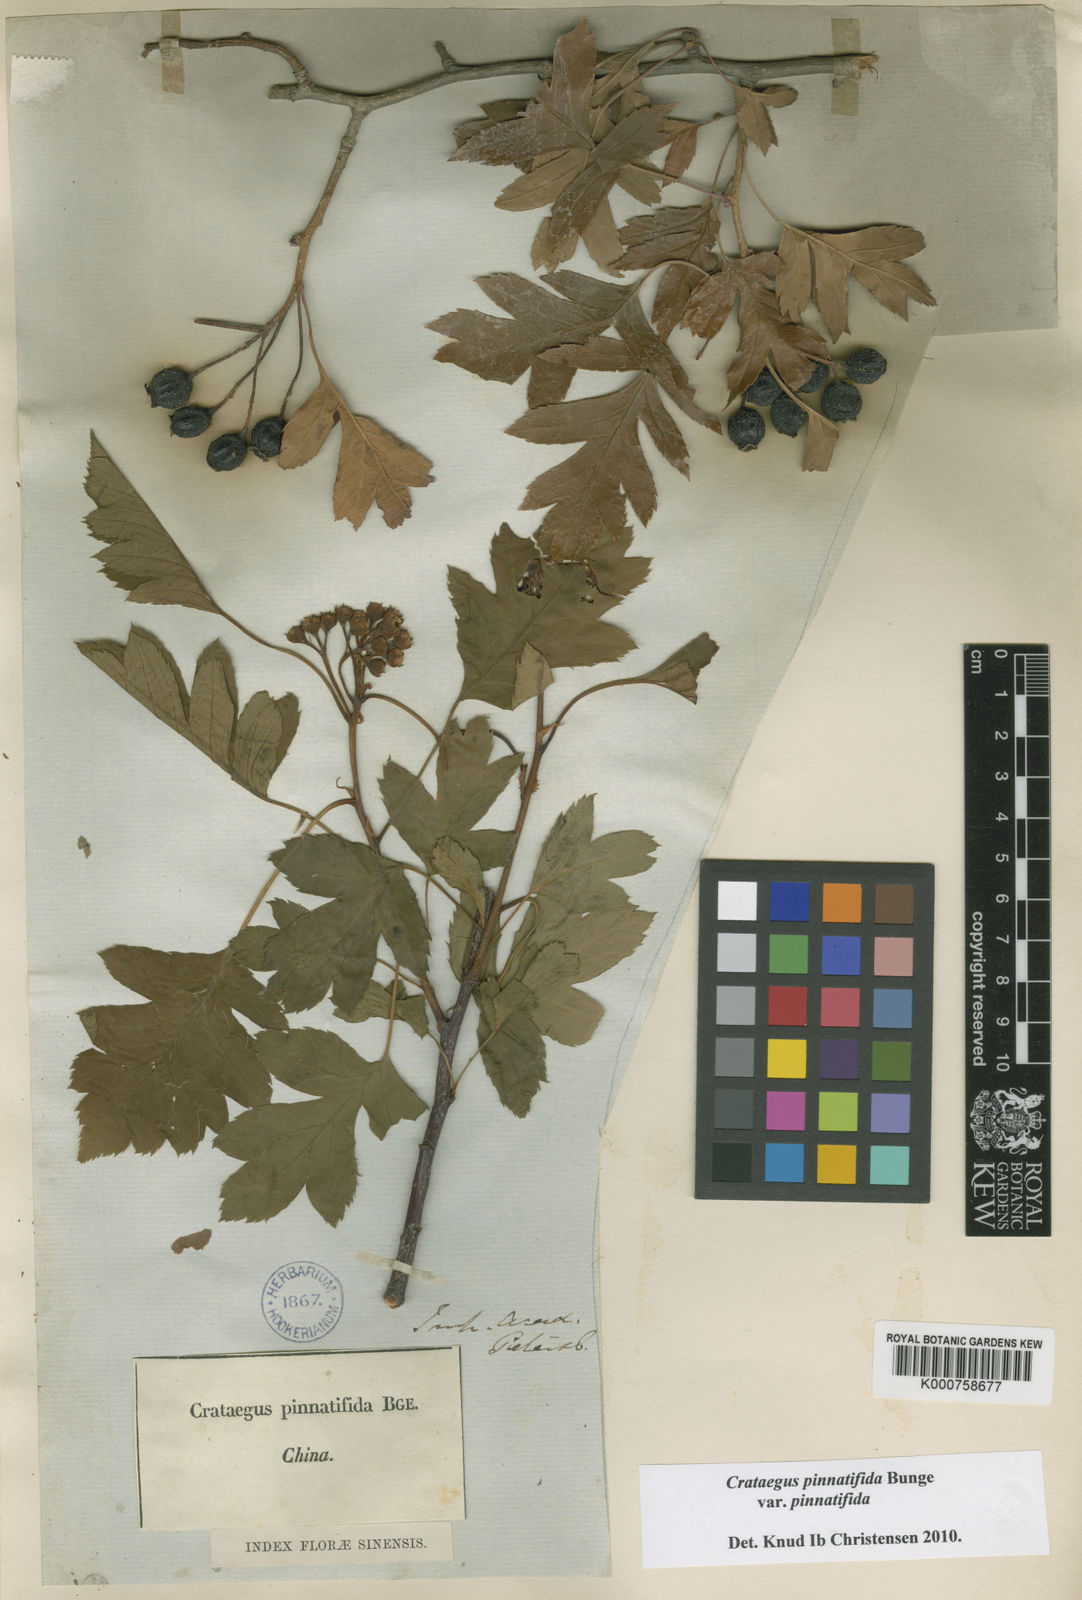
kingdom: Plantae
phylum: Tracheophyta
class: Magnoliopsida
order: Rosales
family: Rosaceae
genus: Crataegus
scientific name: Crataegus pinnatifida
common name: Chinese haw
